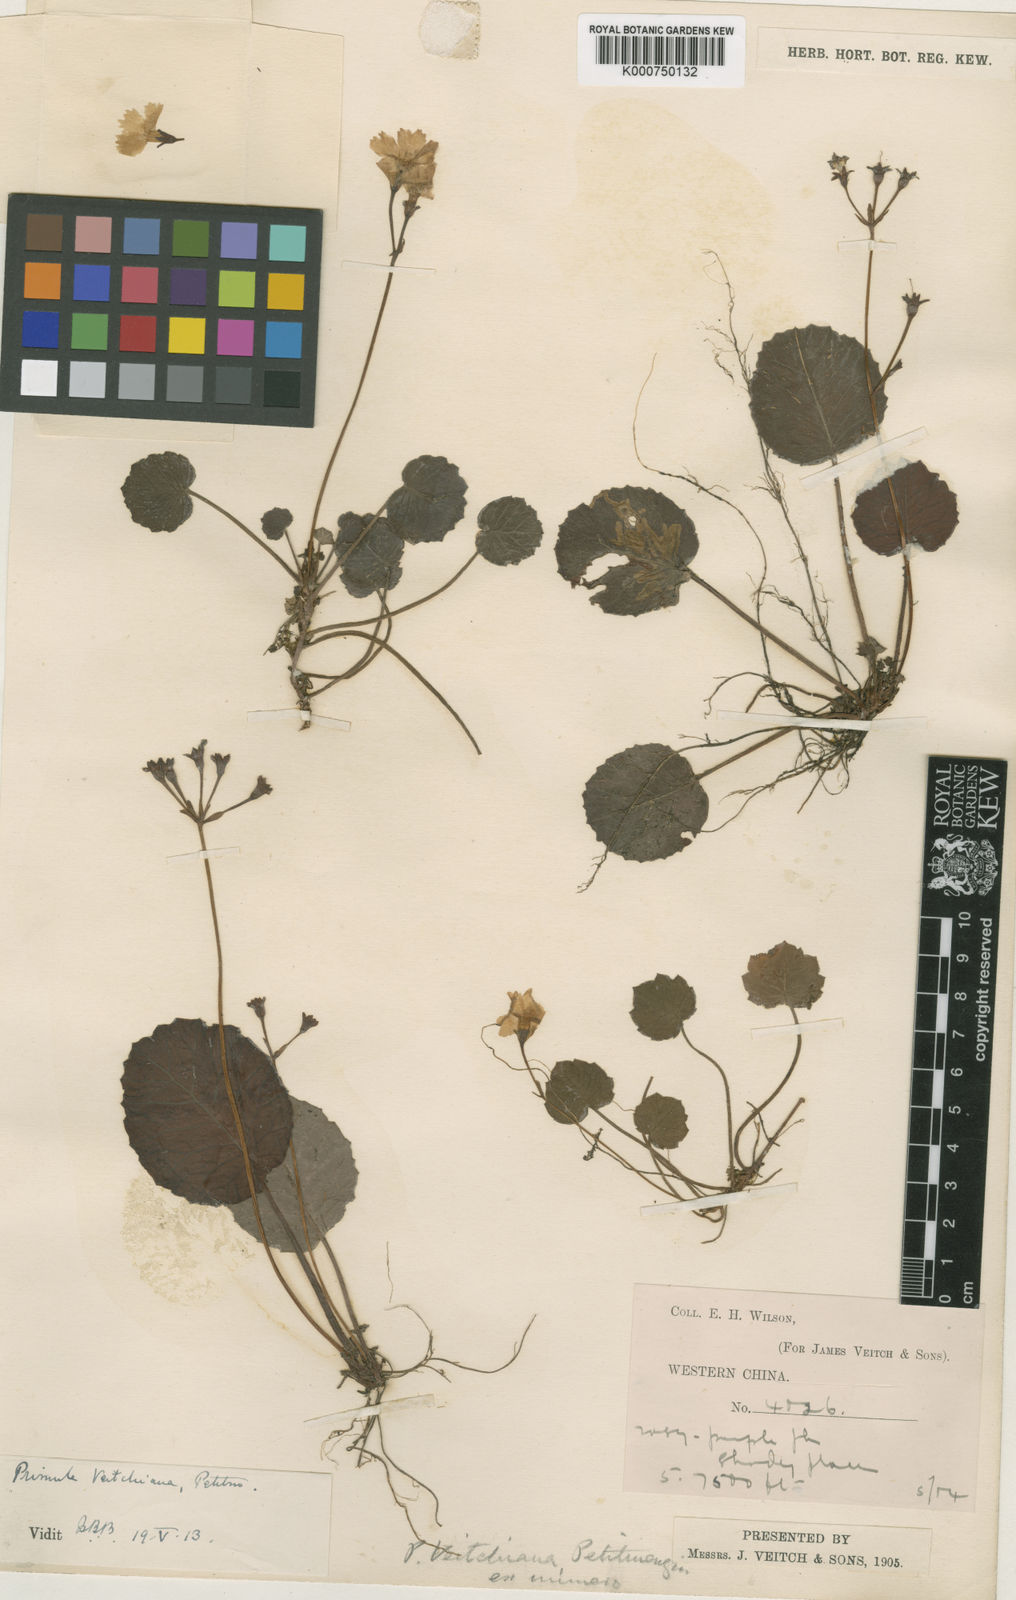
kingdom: Plantae
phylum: Tracheophyta
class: Magnoliopsida
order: Ericales
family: Primulaceae
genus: Primula
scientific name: Primula veitchiana
